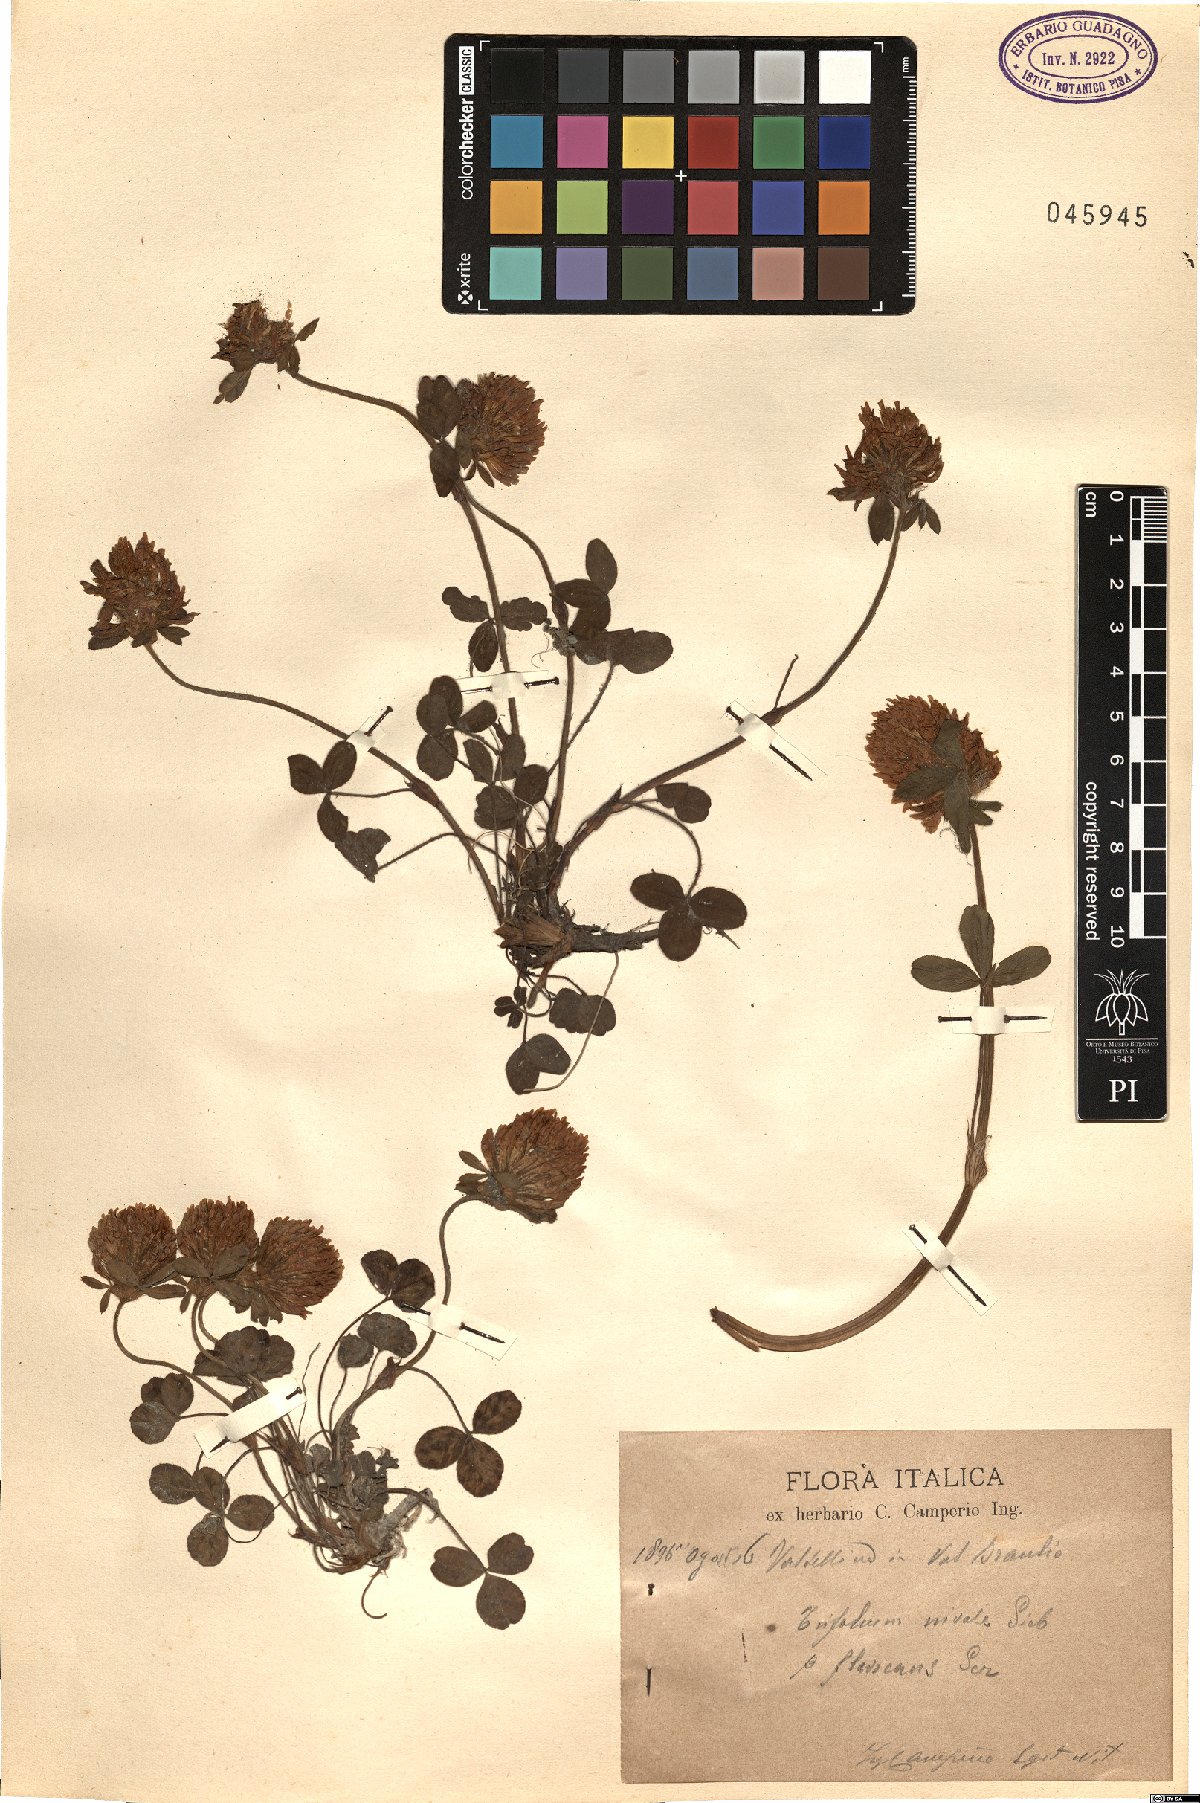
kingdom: Plantae
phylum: Tracheophyta
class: Magnoliopsida
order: Fabales
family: Fabaceae
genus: Trifolium
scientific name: Trifolium pratense
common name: Red clover
